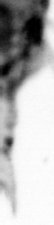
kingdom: Animalia
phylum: Chordata
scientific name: Chordata
